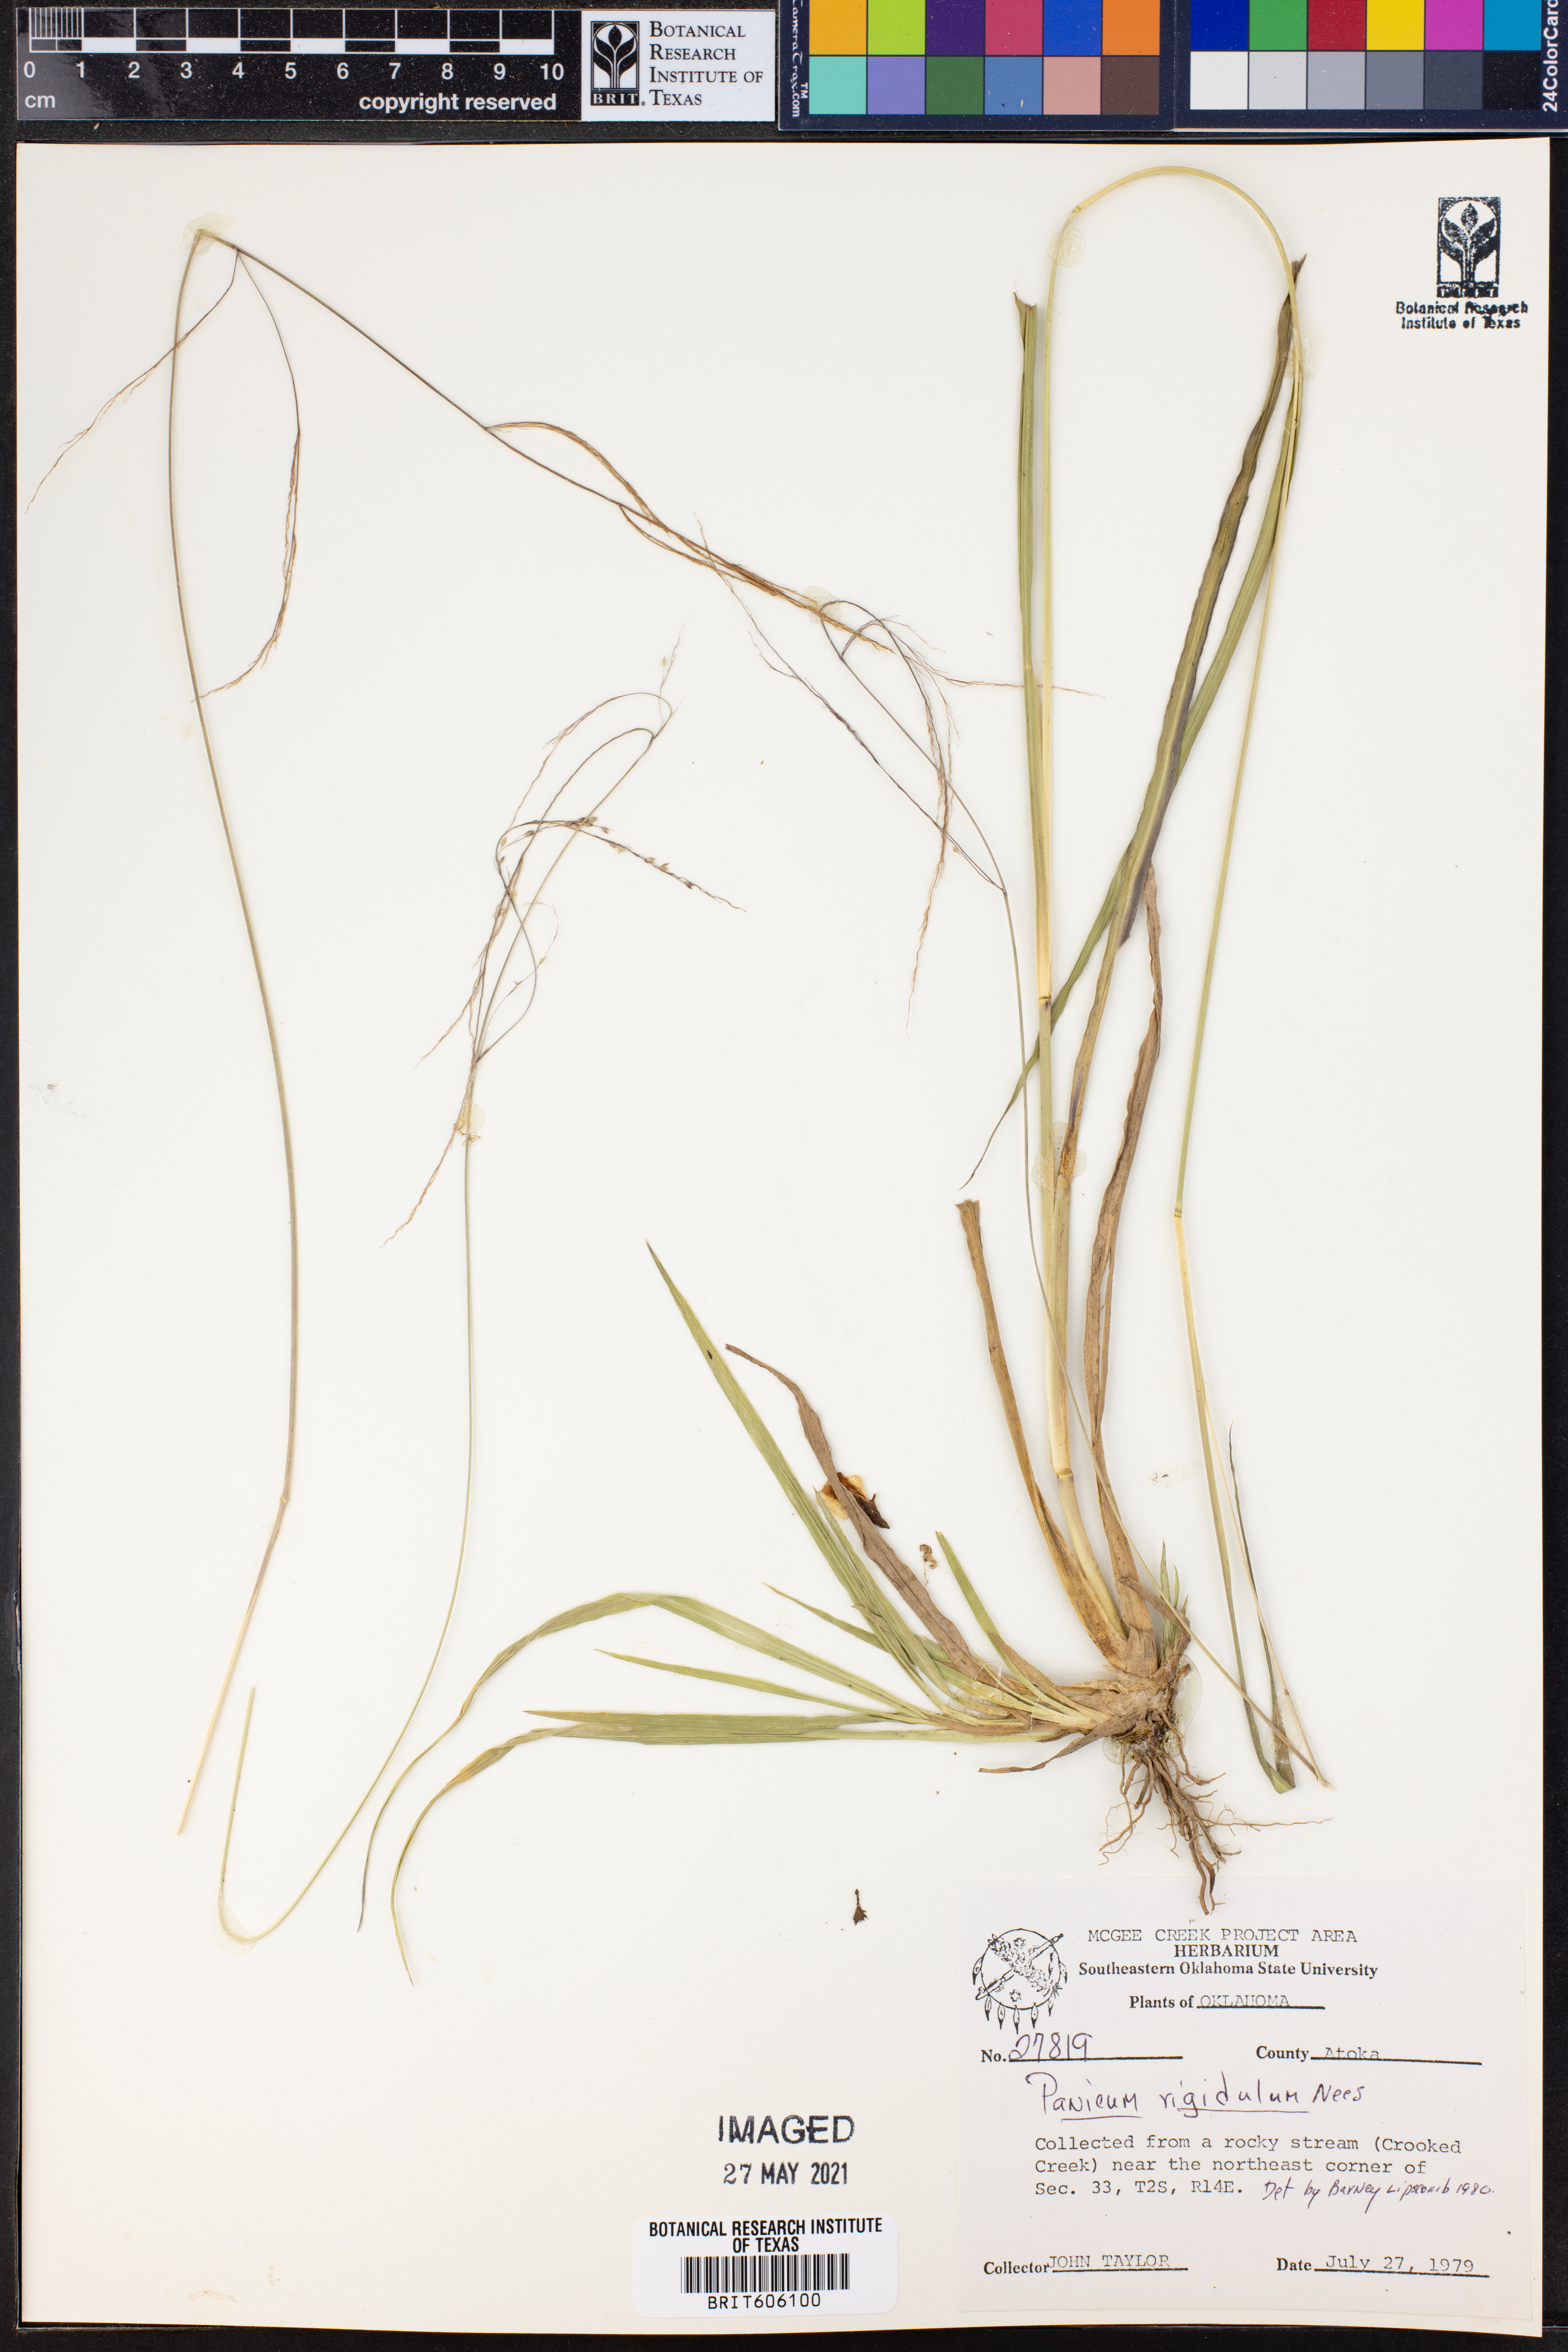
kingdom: Plantae
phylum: Tracheophyta
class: Liliopsida
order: Poales
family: Poaceae
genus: Coleataenia
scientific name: Coleataenia rigidula
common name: Redtop panicgrass
